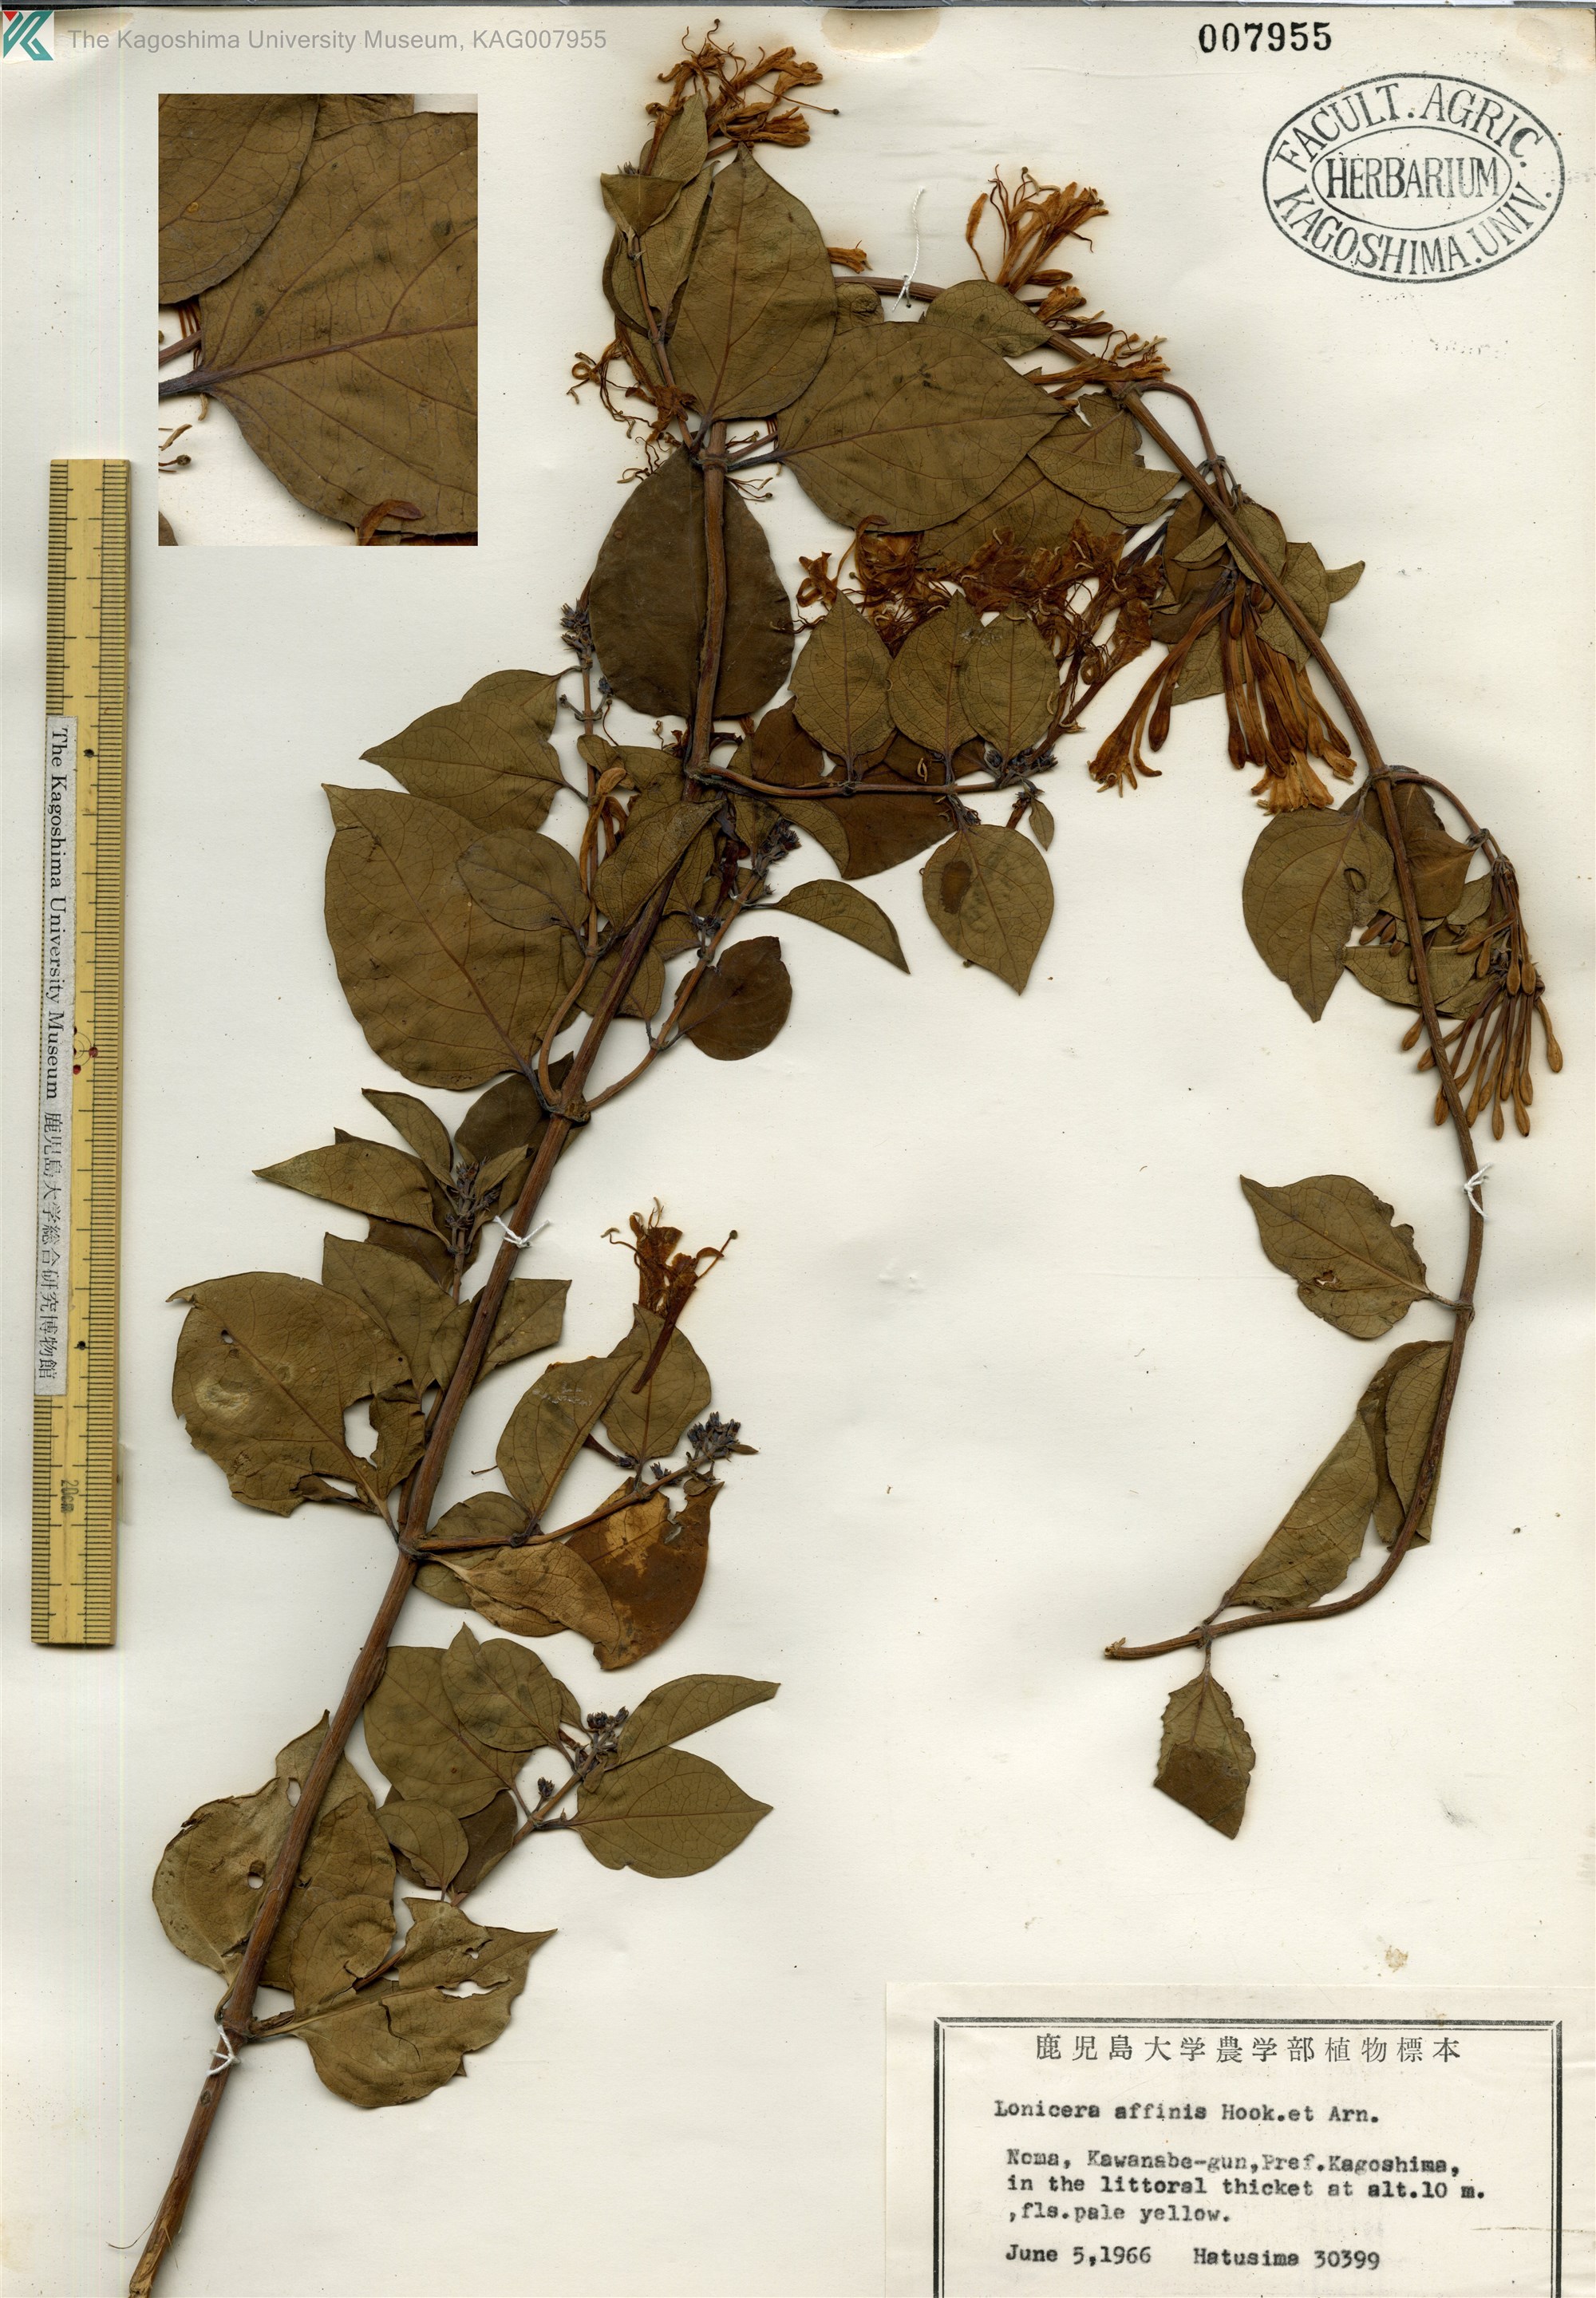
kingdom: Plantae
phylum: Tracheophyta
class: Magnoliopsida
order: Dipsacales
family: Caprifoliaceae
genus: Lonicera
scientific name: Lonicera affinis
